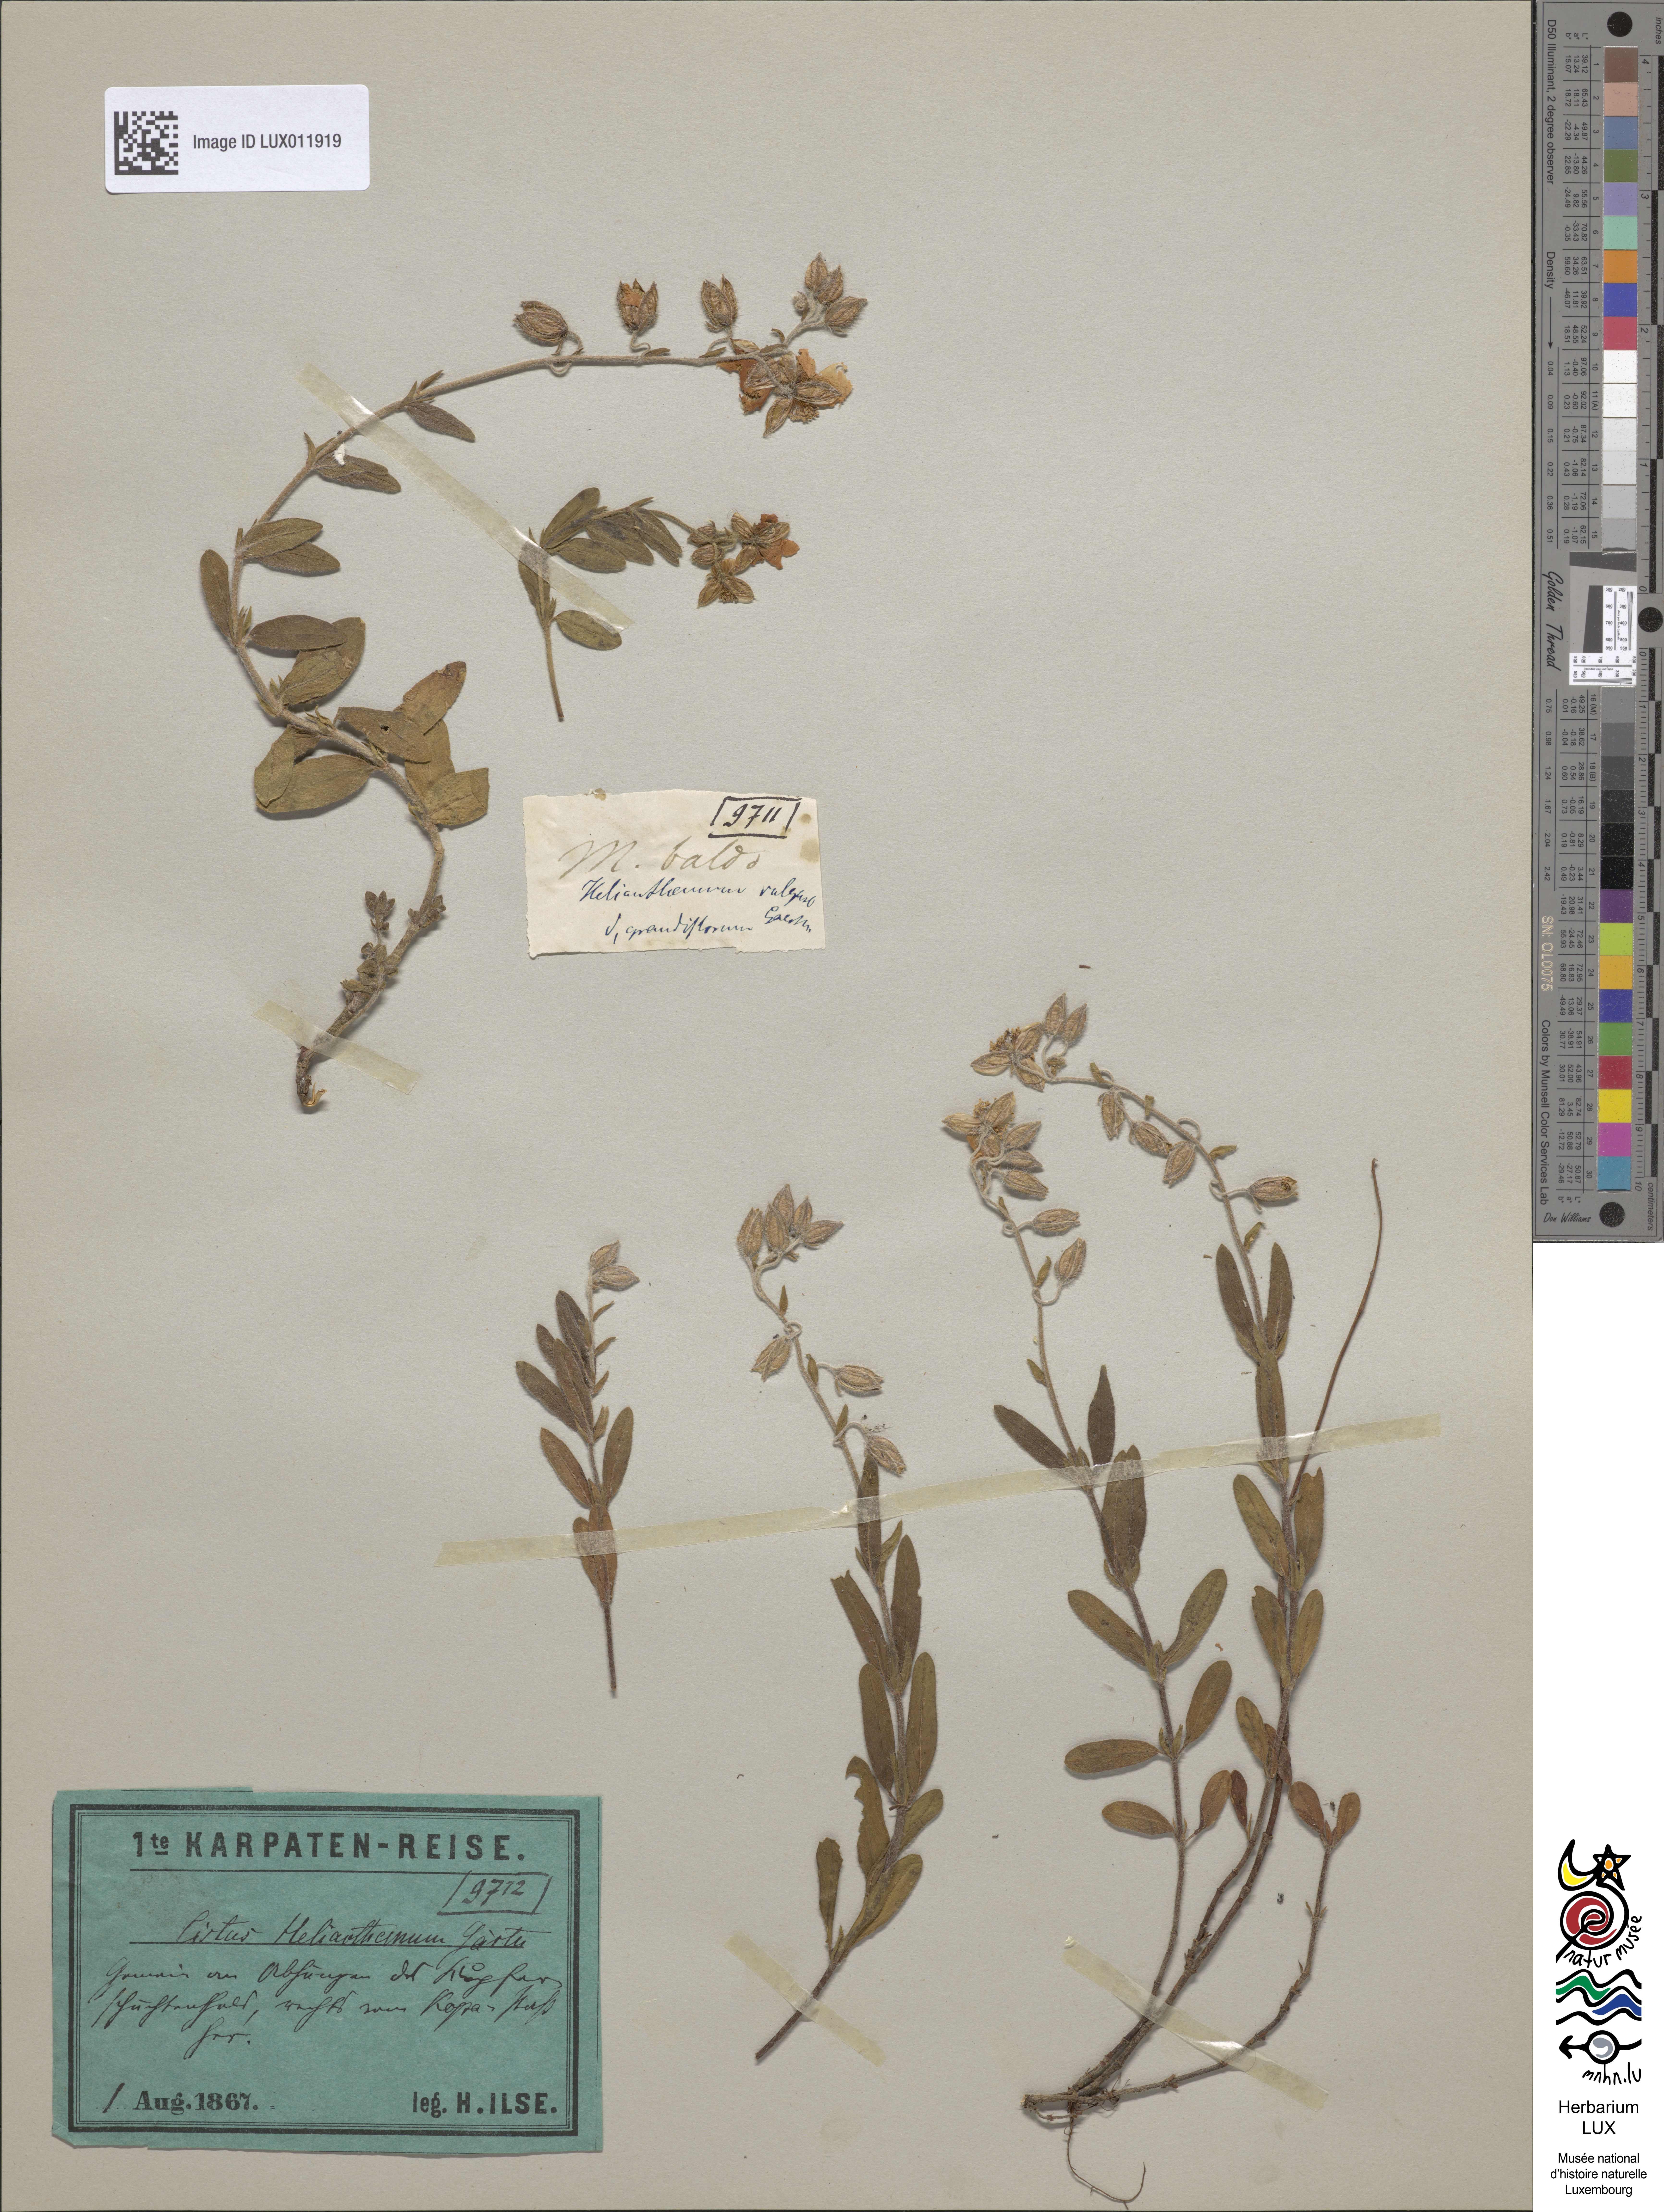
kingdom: Plantae
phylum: Tracheophyta
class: Magnoliopsida
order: Malvales
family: Cistaceae
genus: Helianthemum
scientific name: Helianthemum nummularium
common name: Common rock-rose
